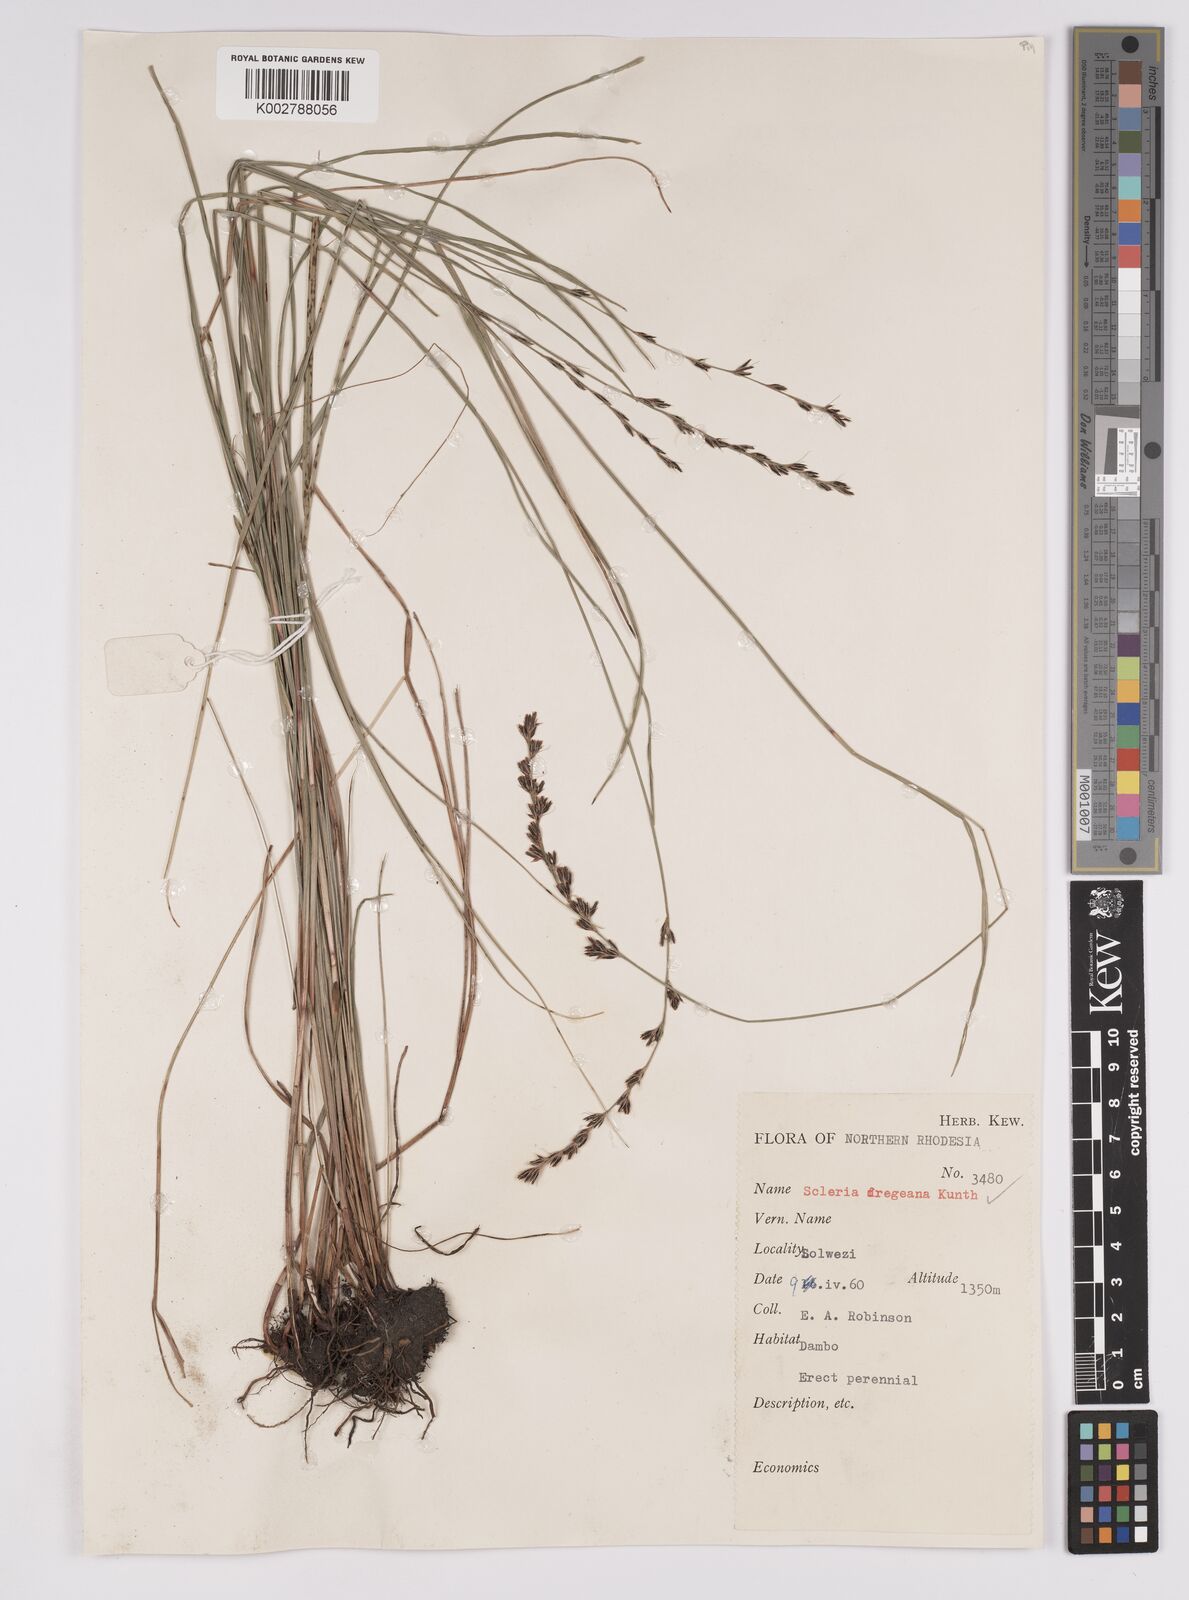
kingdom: Plantae
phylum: Tracheophyta
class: Liliopsida
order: Poales
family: Cyperaceae
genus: Scleria
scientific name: Scleria dregeana
